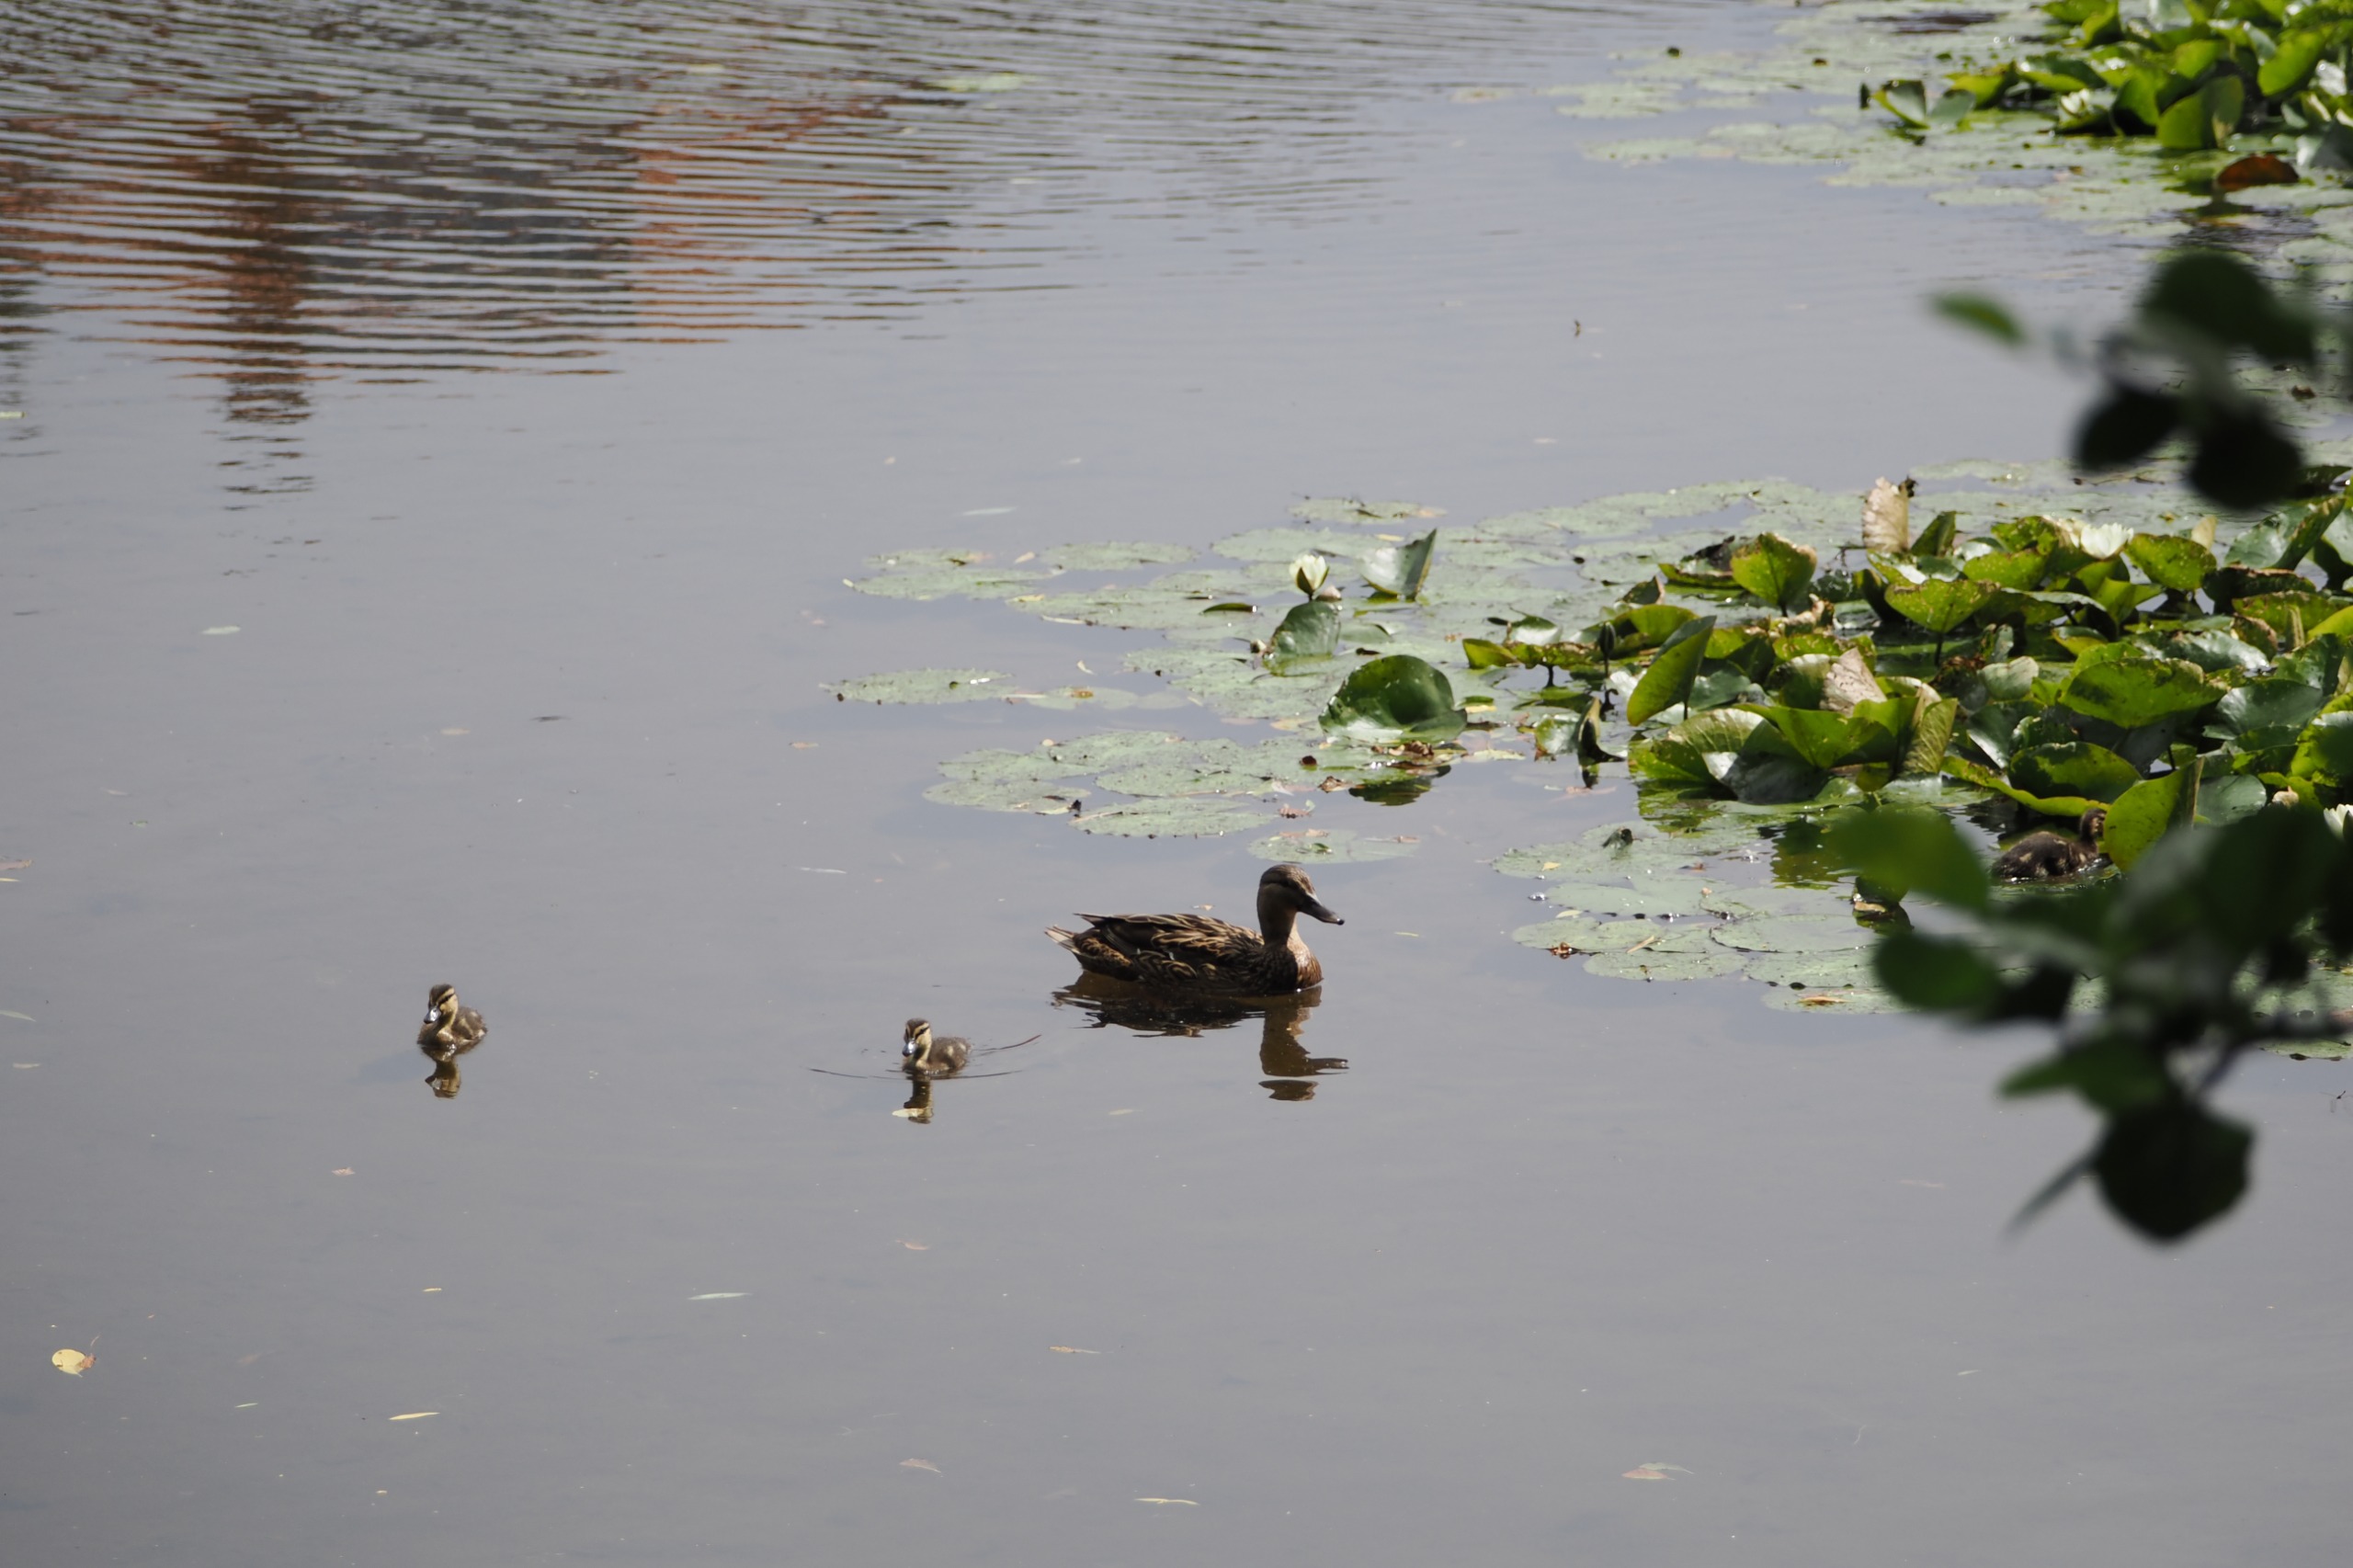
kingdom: Animalia
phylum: Chordata
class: Aves
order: Anseriformes
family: Anatidae
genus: Anas
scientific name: Anas platyrhynchos
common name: Gråand
